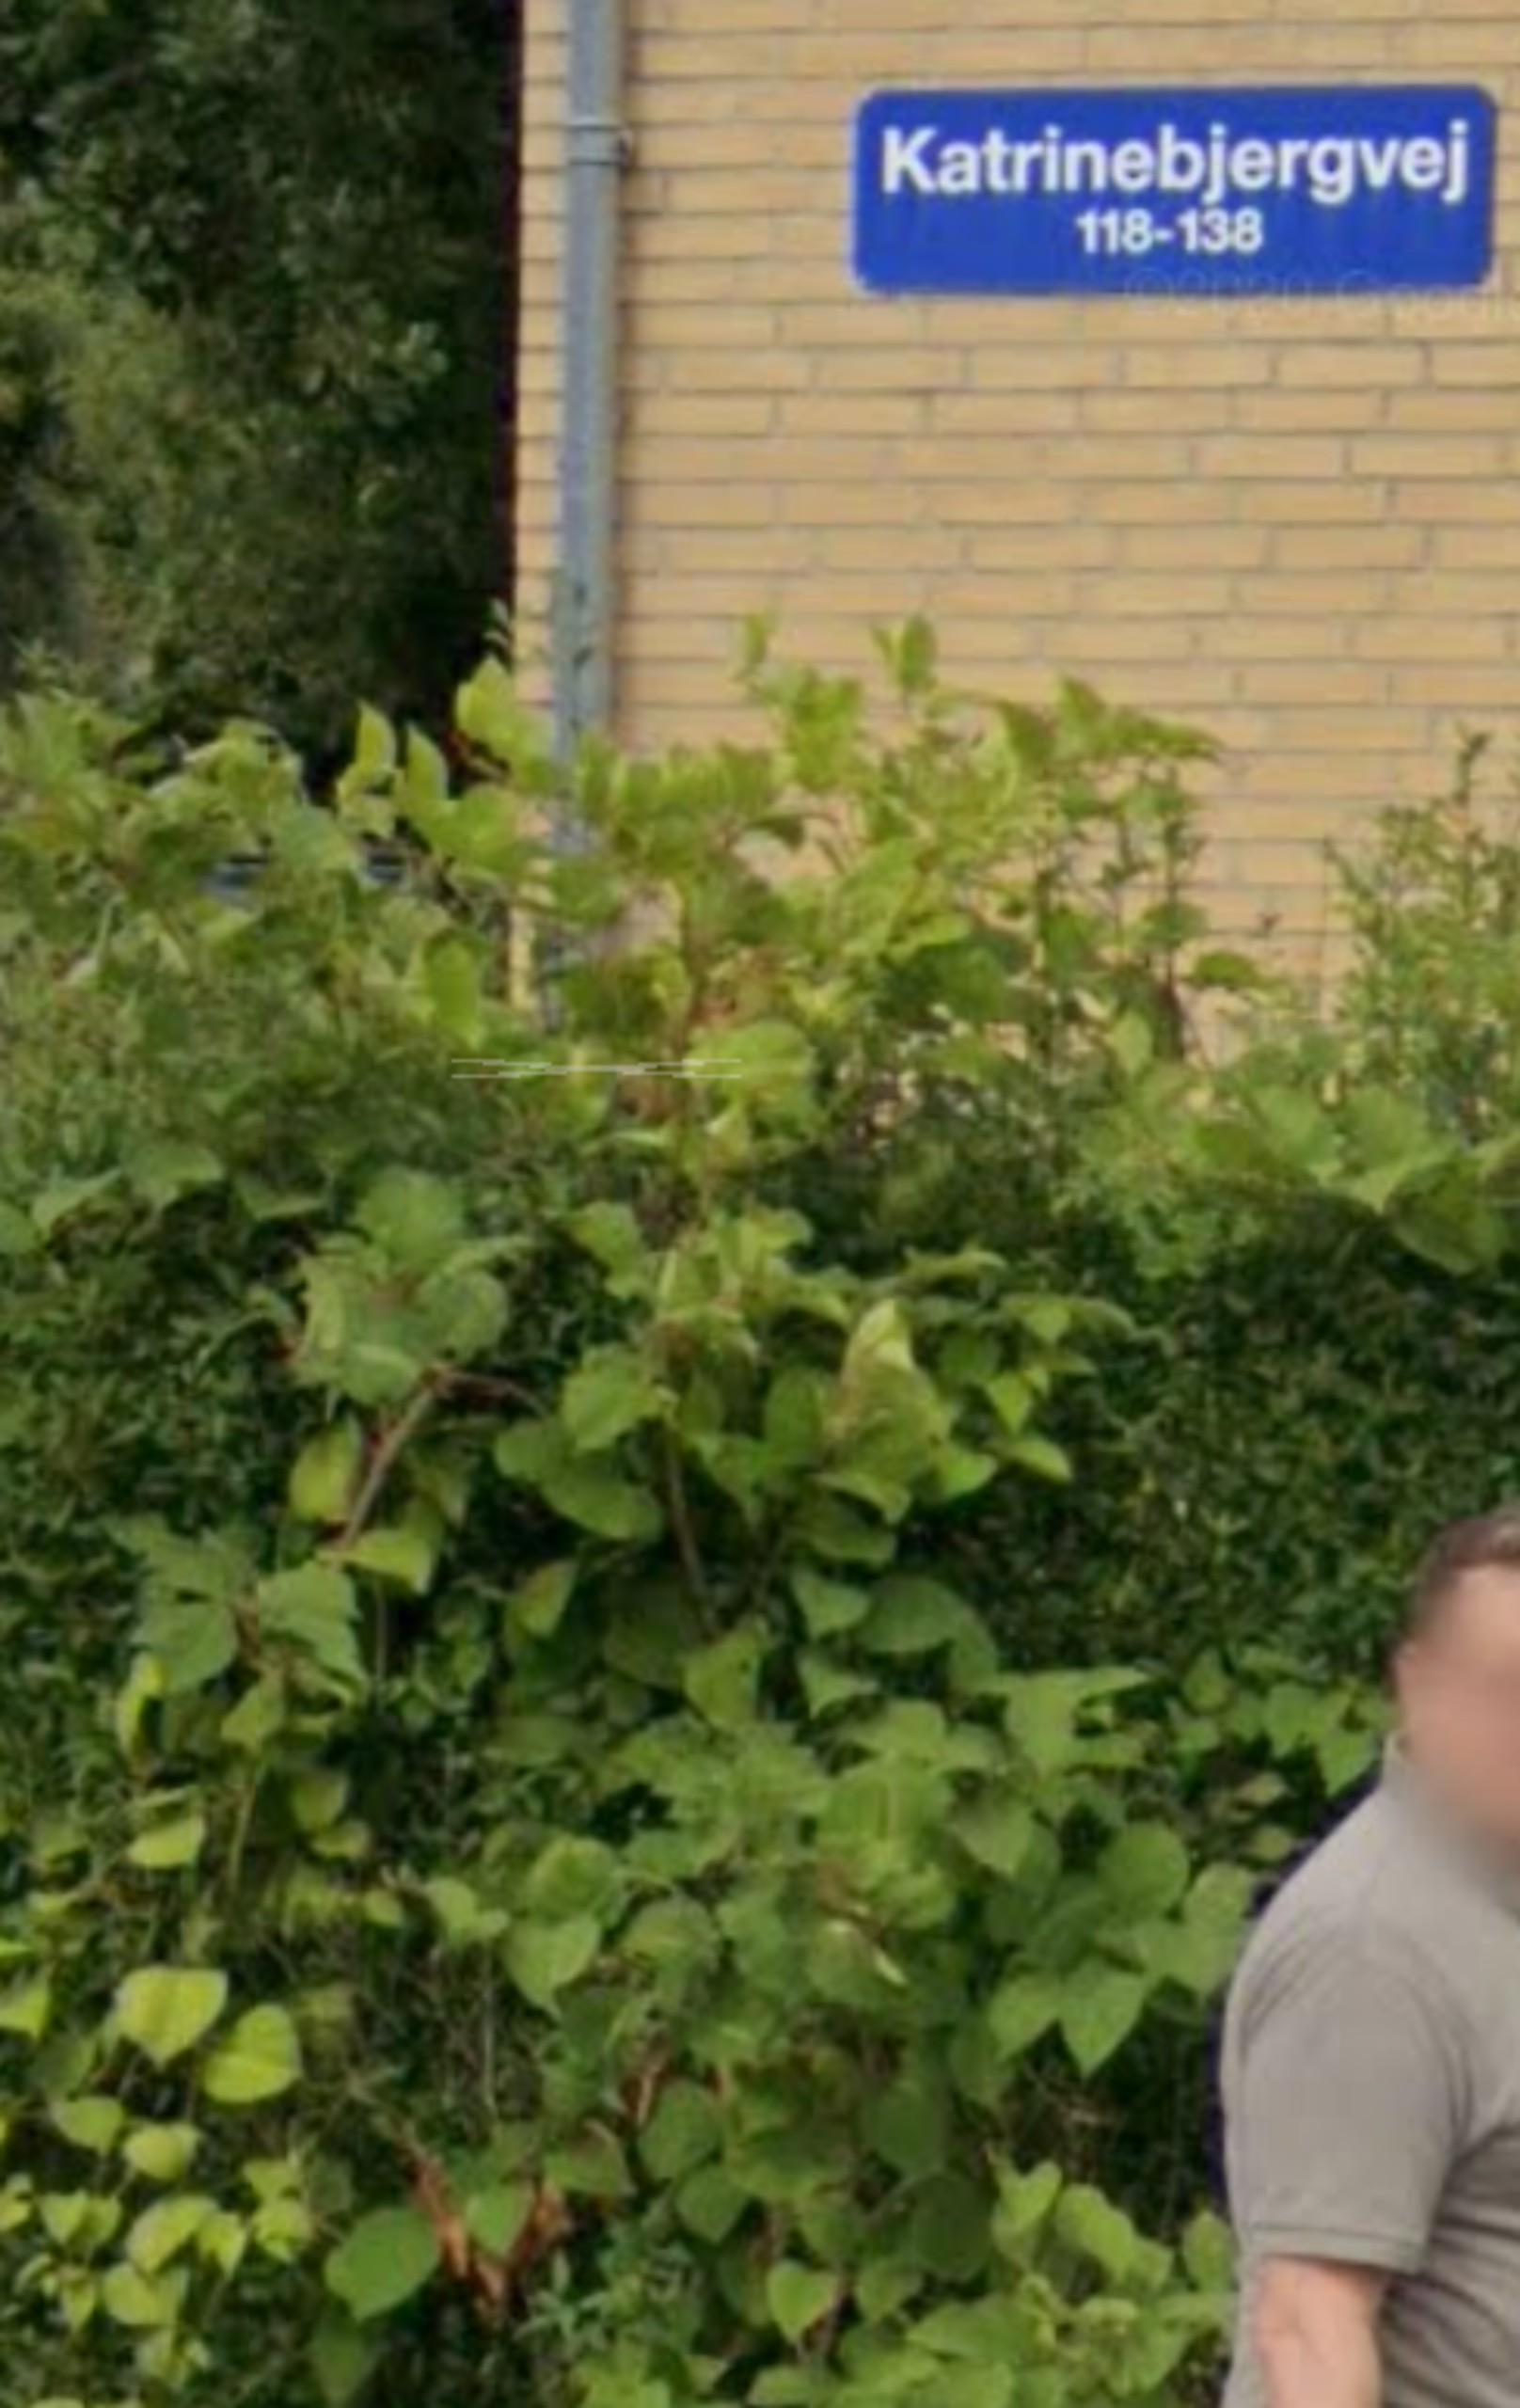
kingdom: Plantae
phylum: Tracheophyta
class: Magnoliopsida
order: Caryophyllales
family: Polygonaceae
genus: Reynoutria
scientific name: Reynoutria japonica
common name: Japan-pileurt
